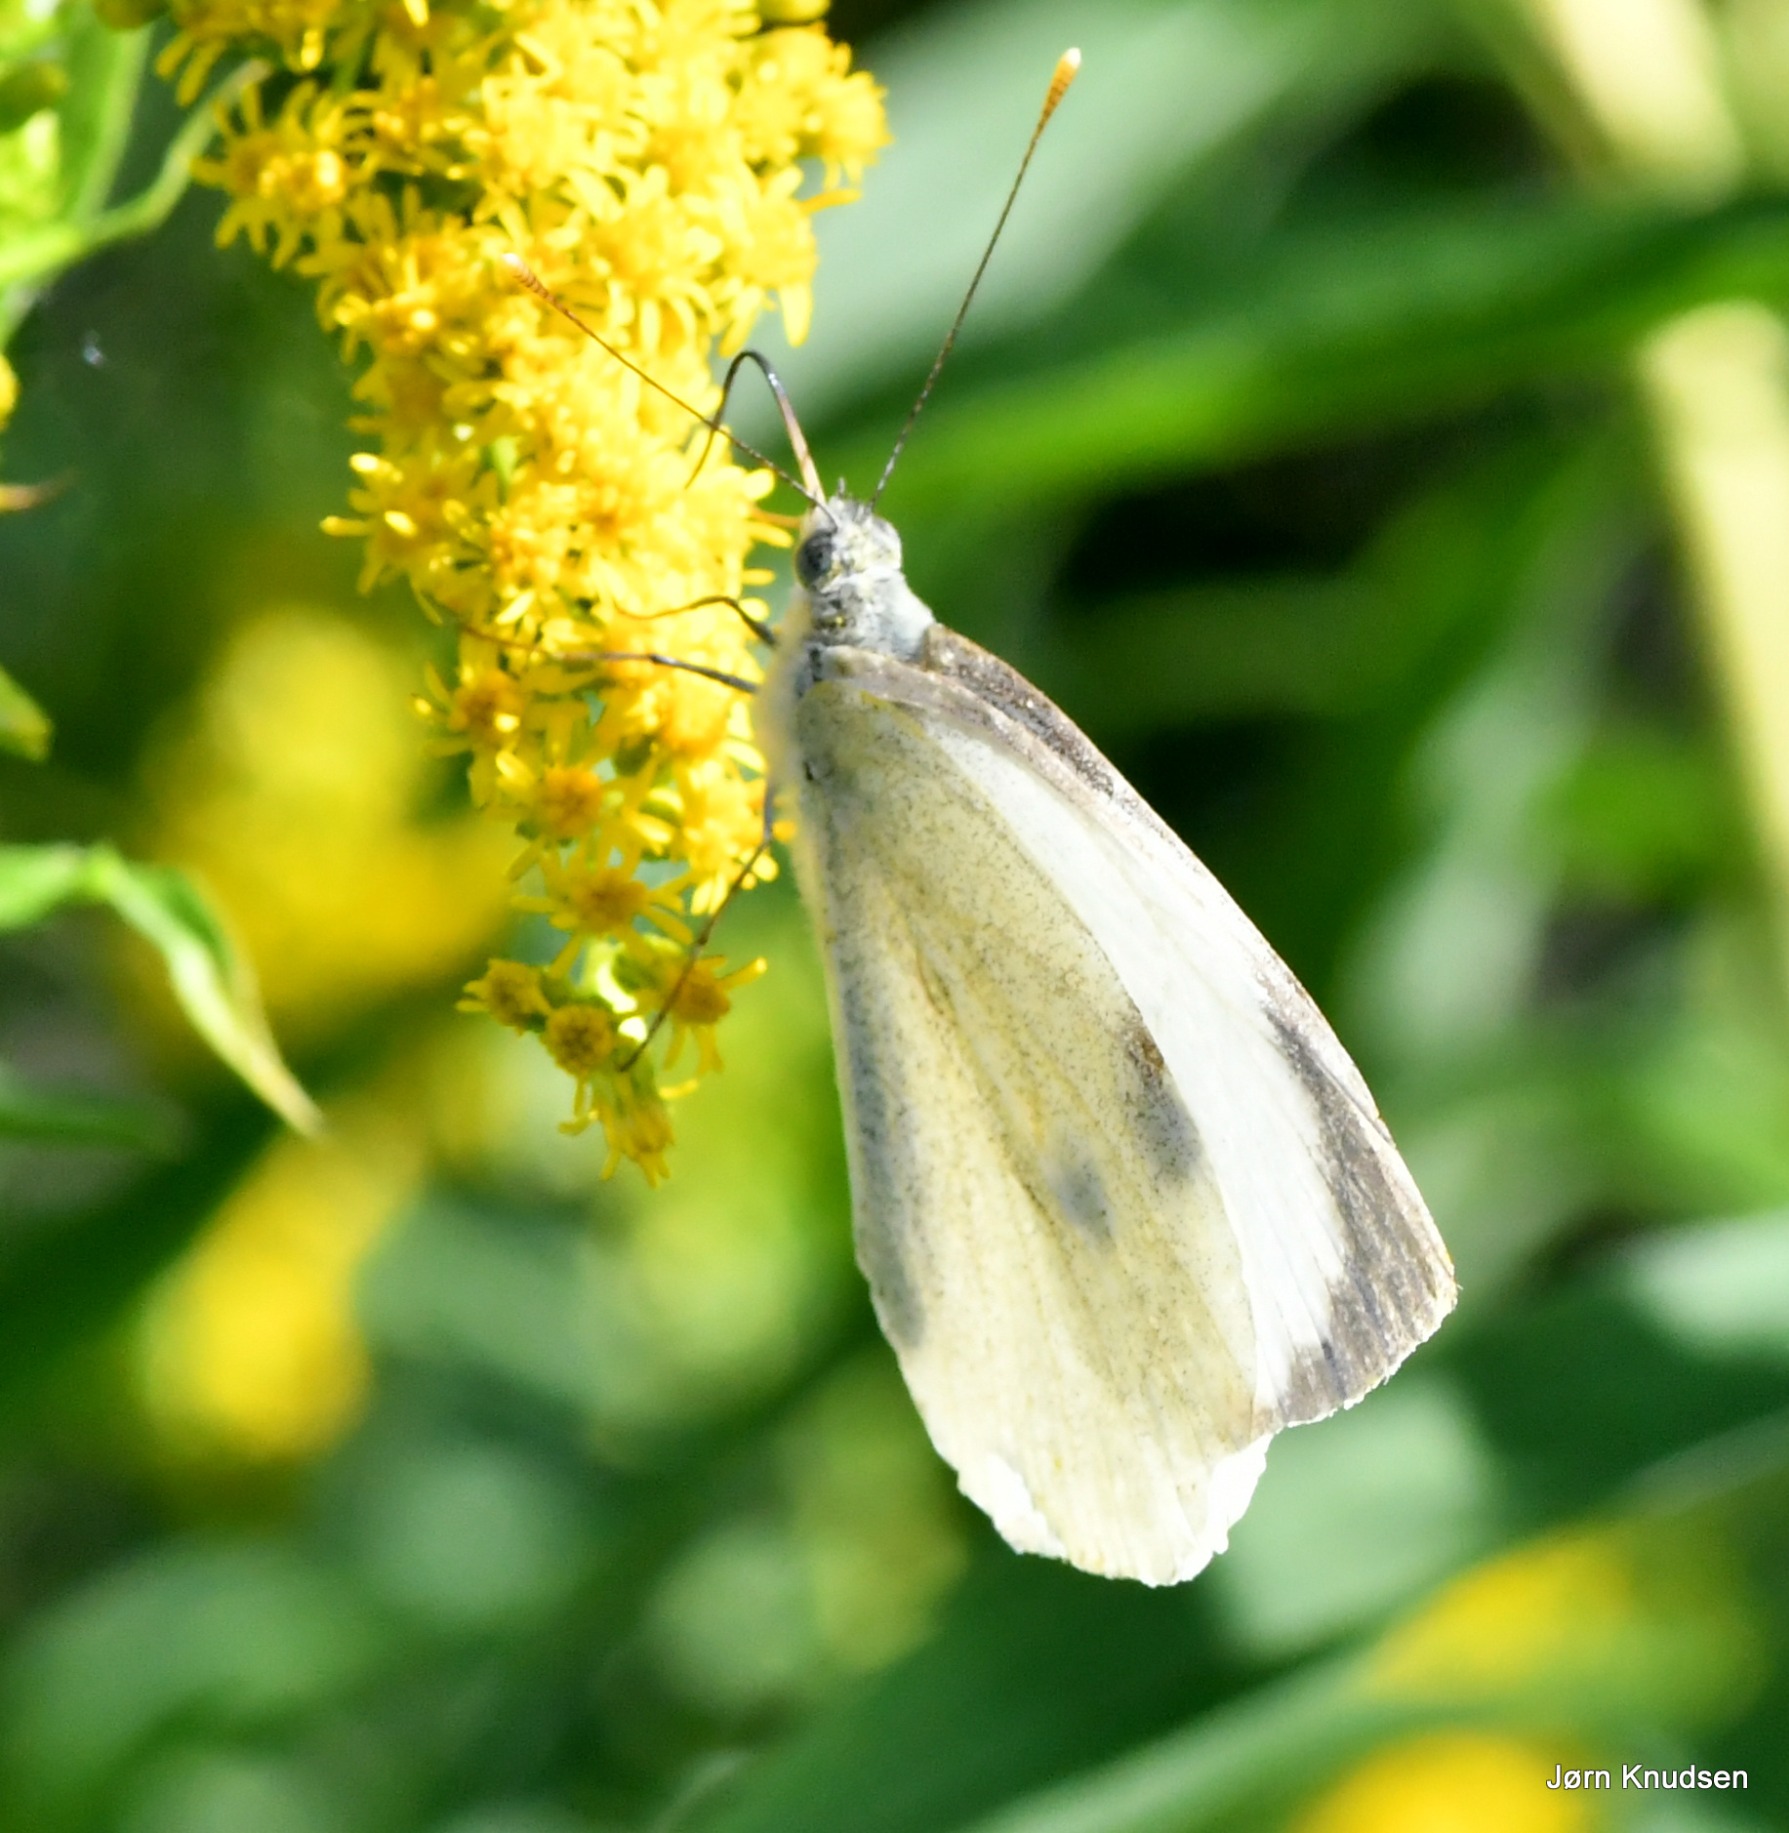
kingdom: Animalia
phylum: Arthropoda
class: Insecta
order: Lepidoptera
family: Pieridae
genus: Pieris
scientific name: Pieris brassicae
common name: Stor kålsommerfugl
